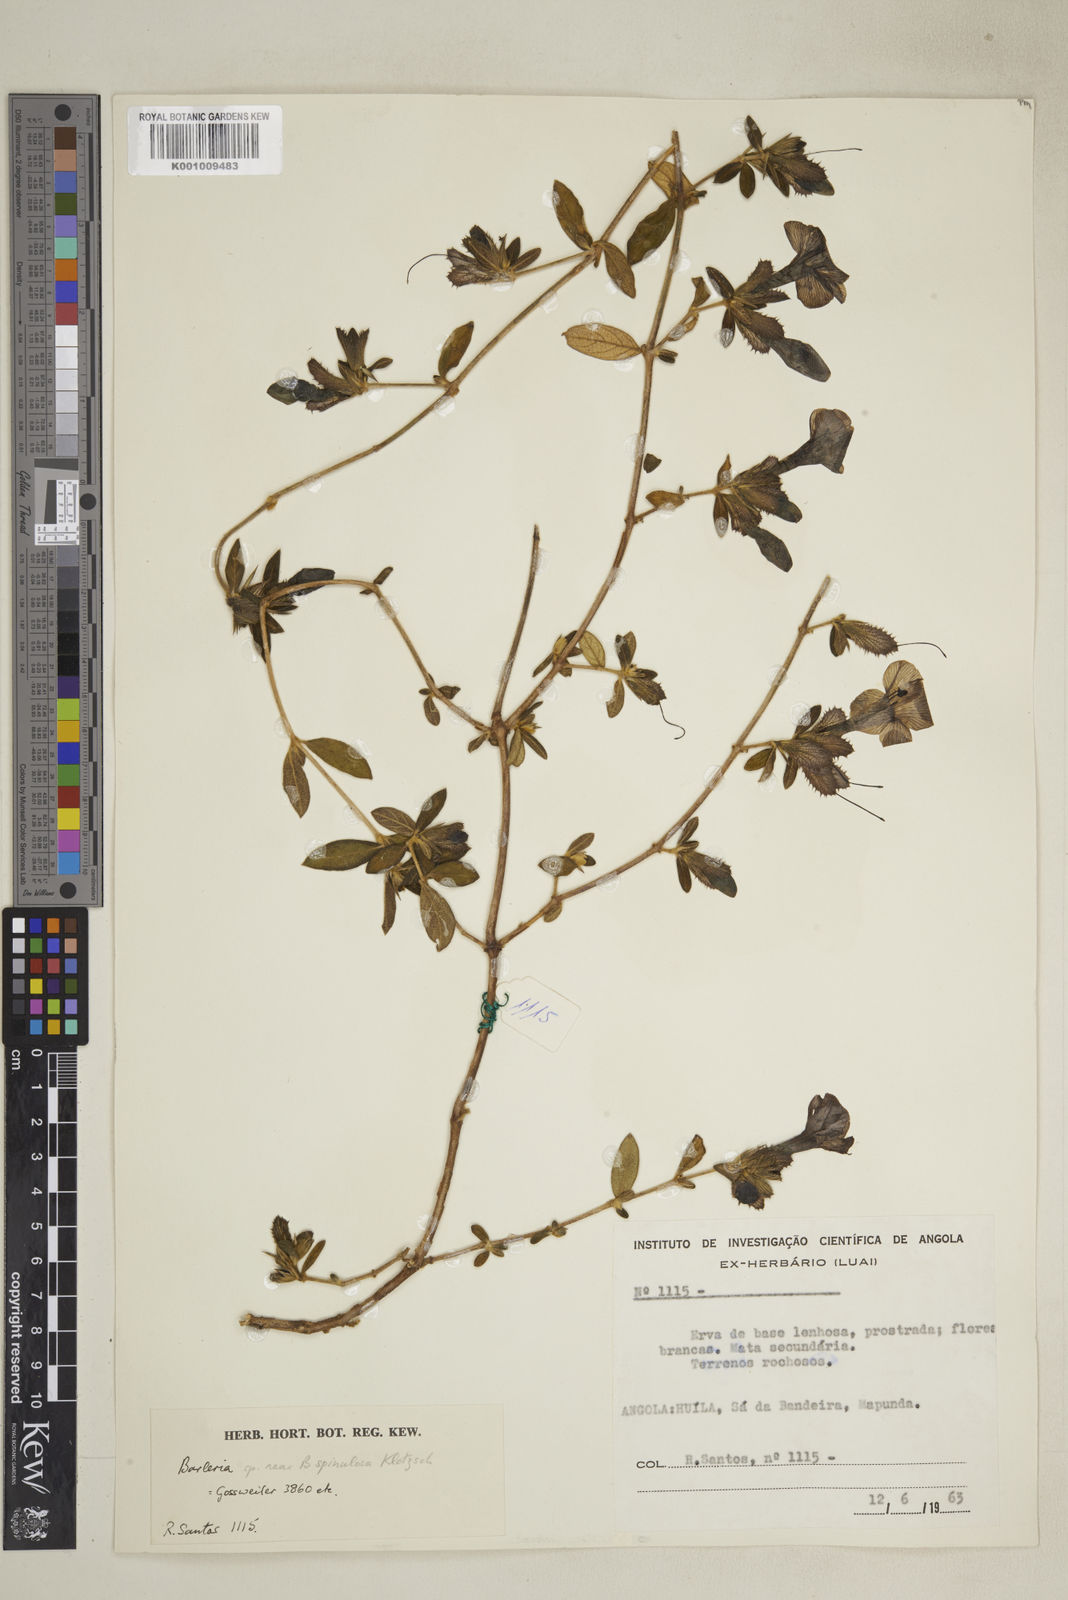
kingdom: Plantae
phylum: Tracheophyta
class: Magnoliopsida
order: Lamiales
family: Acanthaceae
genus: Barleria
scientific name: Barleria
